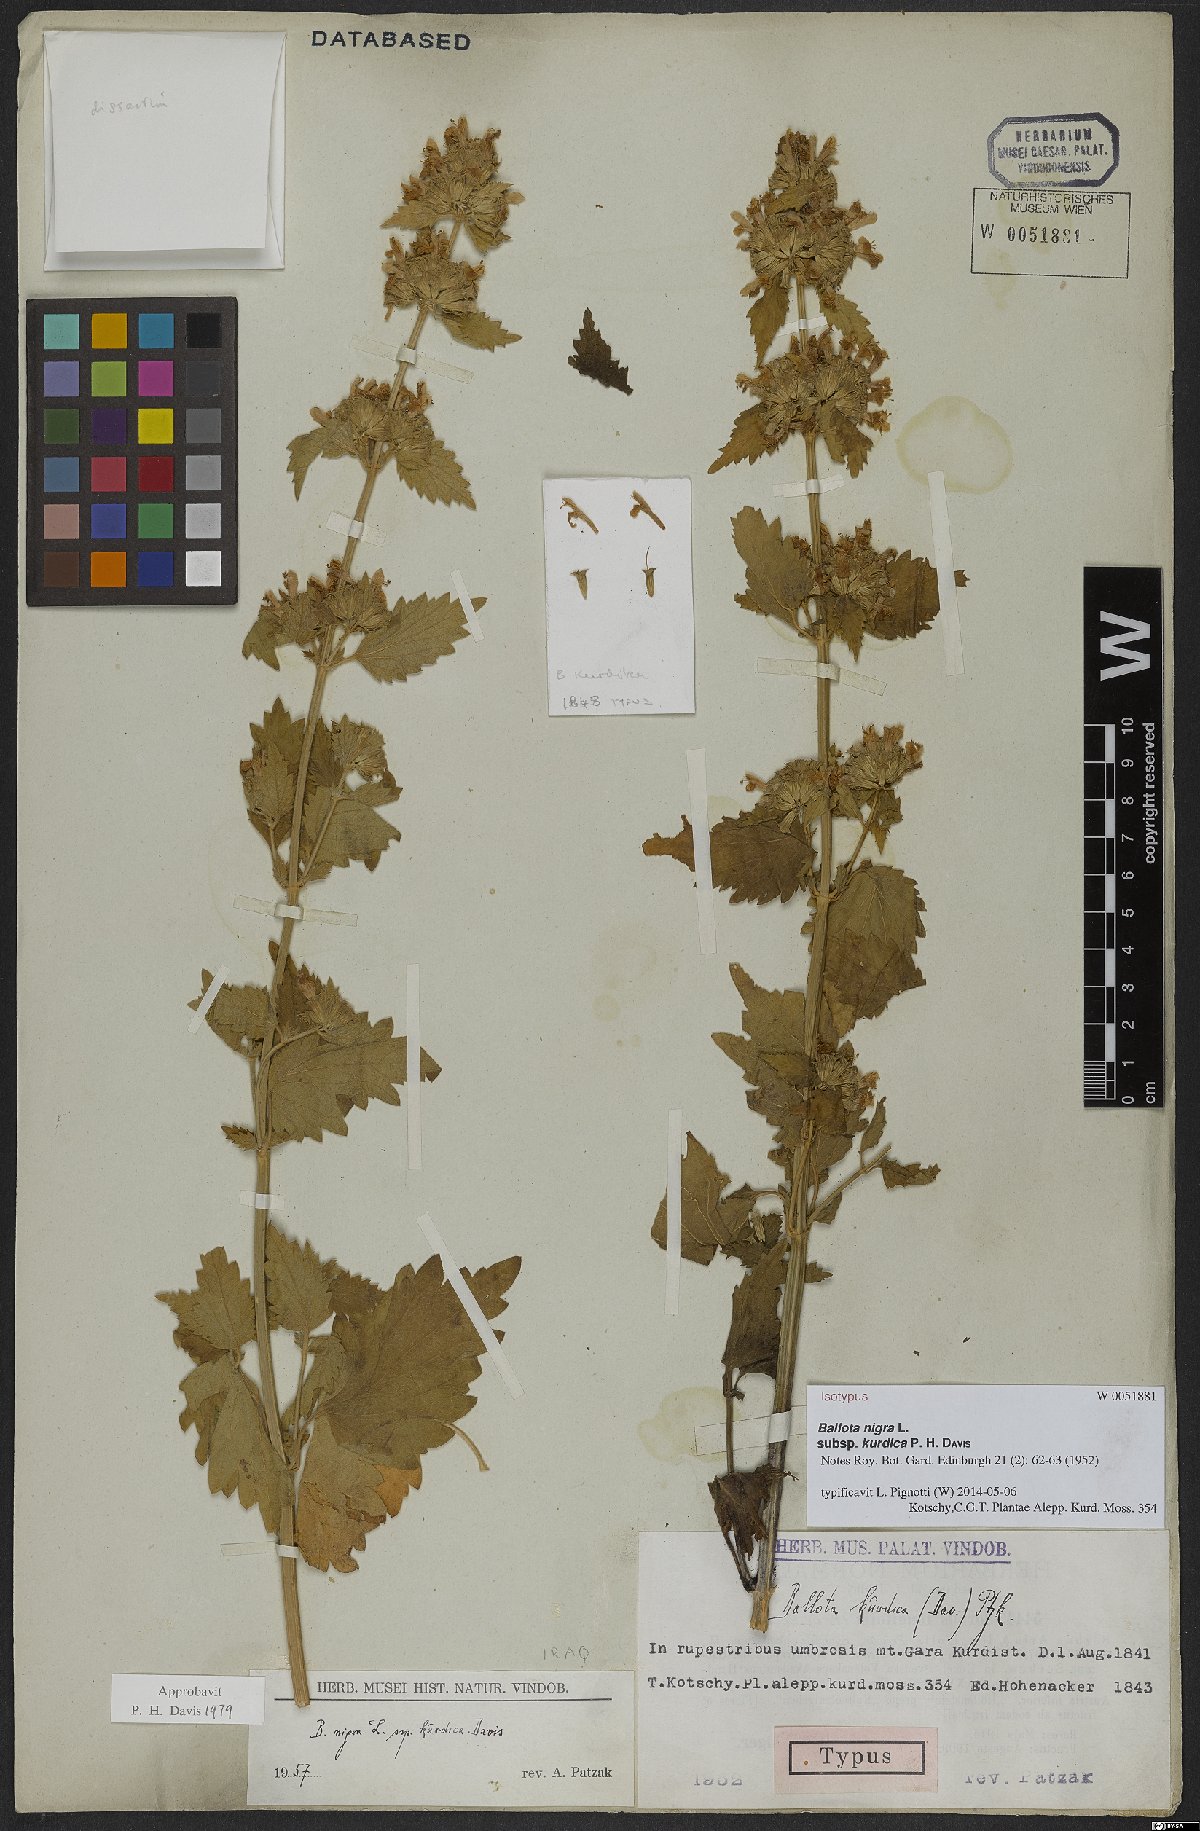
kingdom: Plantae
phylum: Tracheophyta
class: Magnoliopsida
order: Lamiales
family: Lamiaceae
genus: Ballota
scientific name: Ballota nigra
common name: Black horehound
